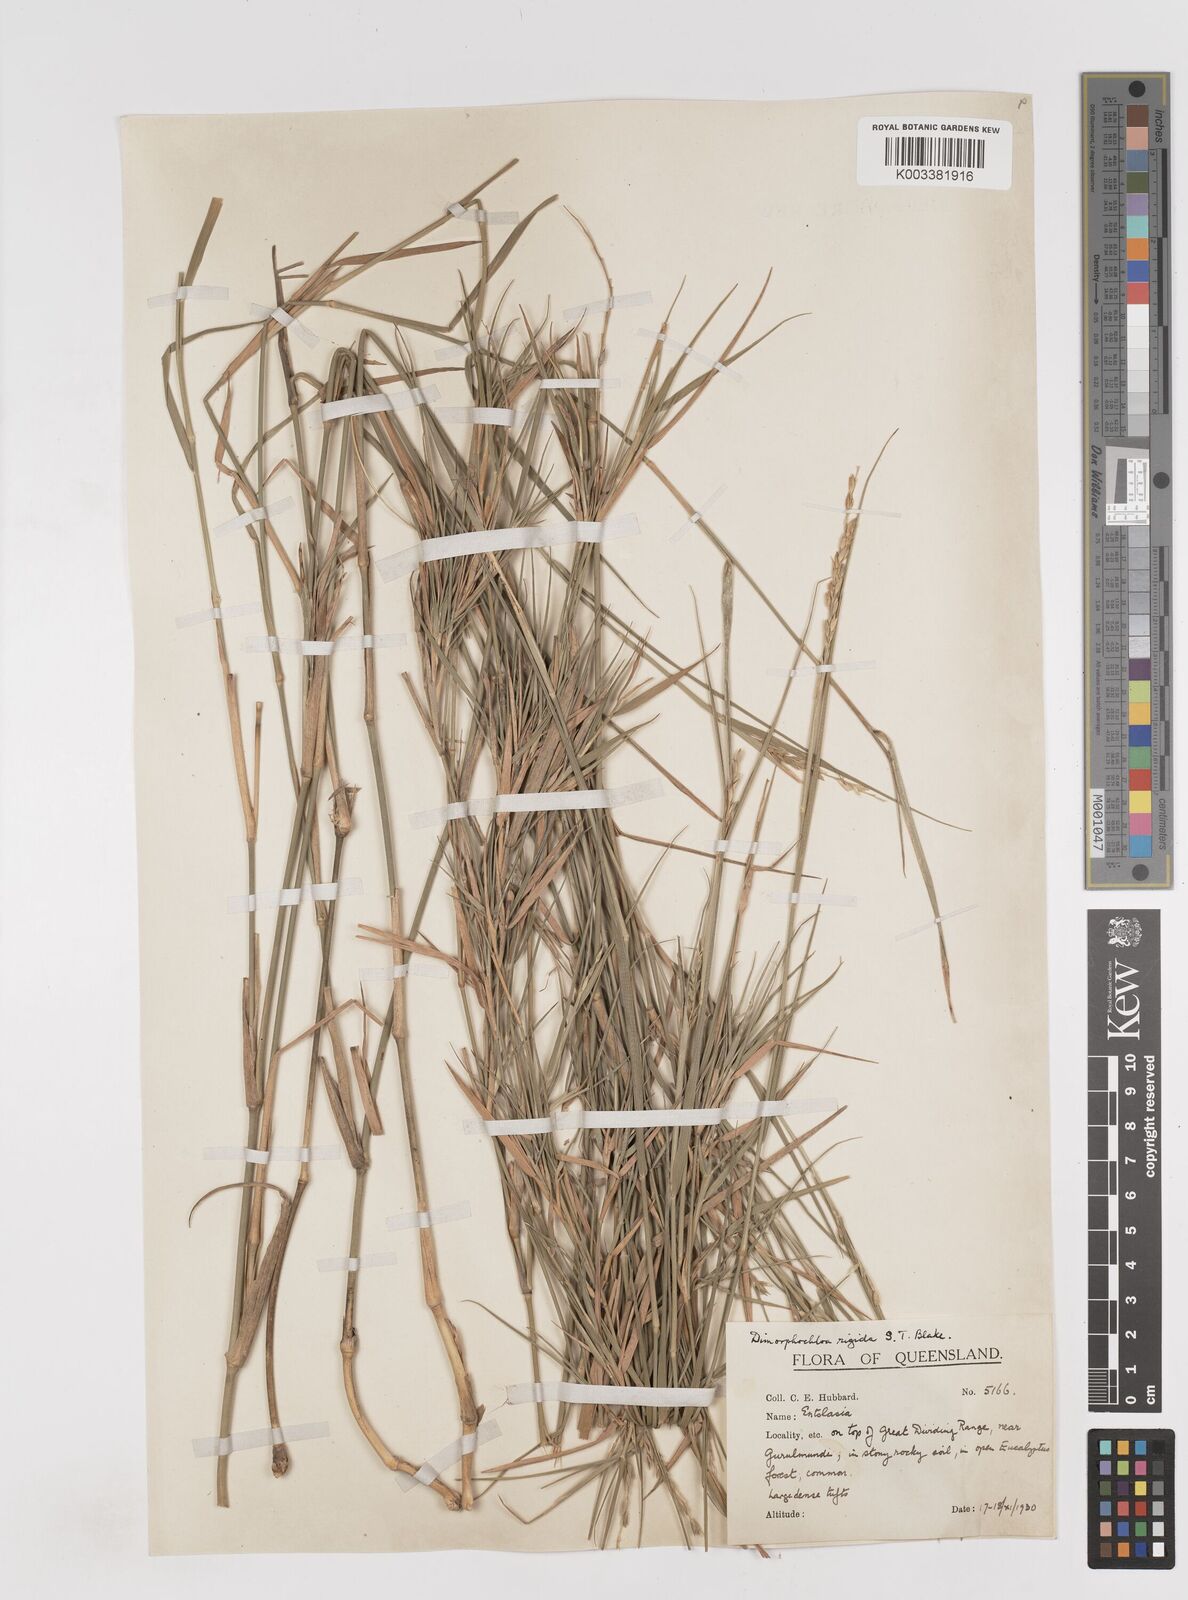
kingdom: Plantae
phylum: Tracheophyta
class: Liliopsida
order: Poales
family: Poaceae
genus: Dimorphochloa
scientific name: Dimorphochloa rigida
